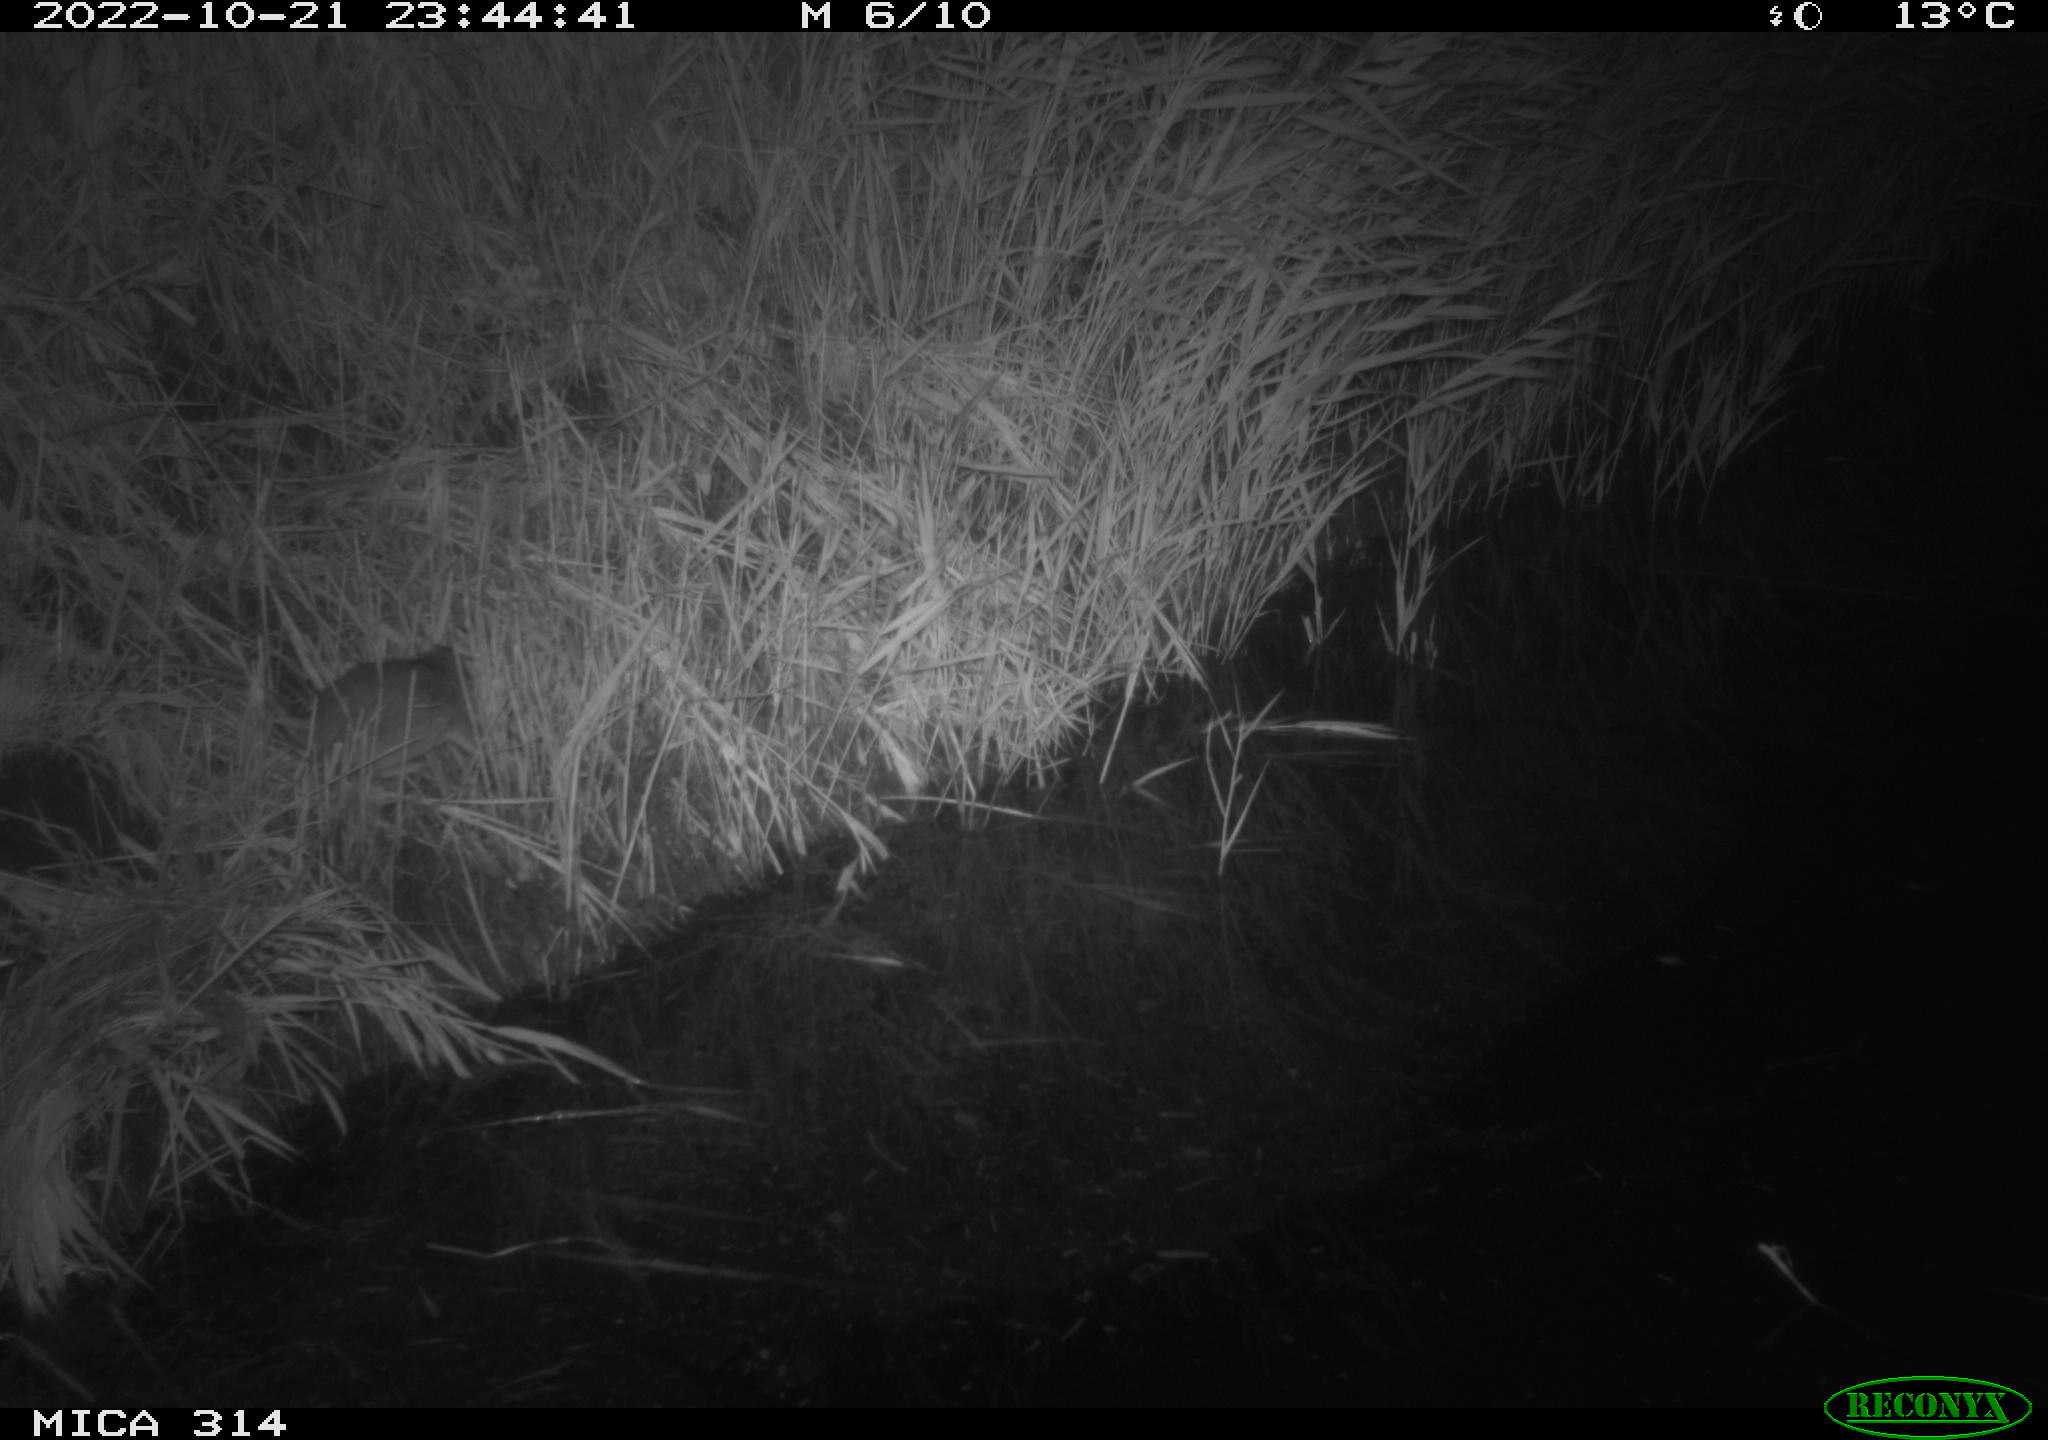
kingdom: Animalia
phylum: Chordata
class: Mammalia
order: Rodentia
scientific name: Rodentia
